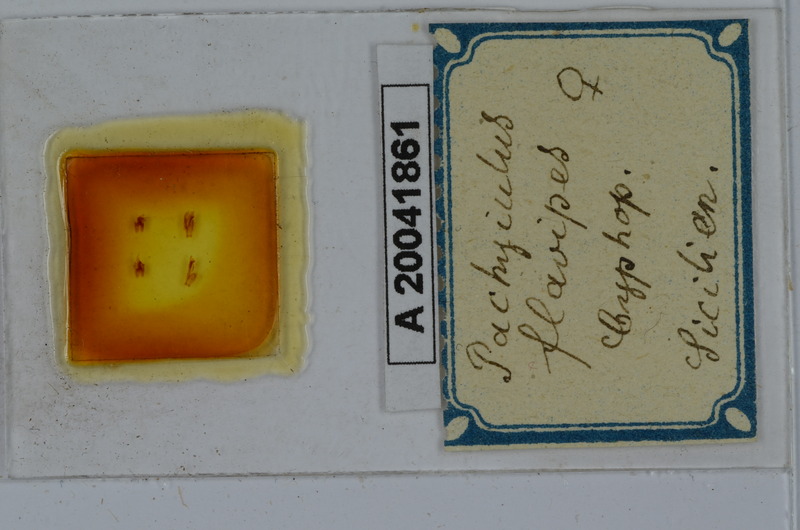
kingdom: Animalia
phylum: Arthropoda
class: Diplopoda
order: Julida
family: Julidae
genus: Pachyiulus
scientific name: Pachyiulus flavipes
